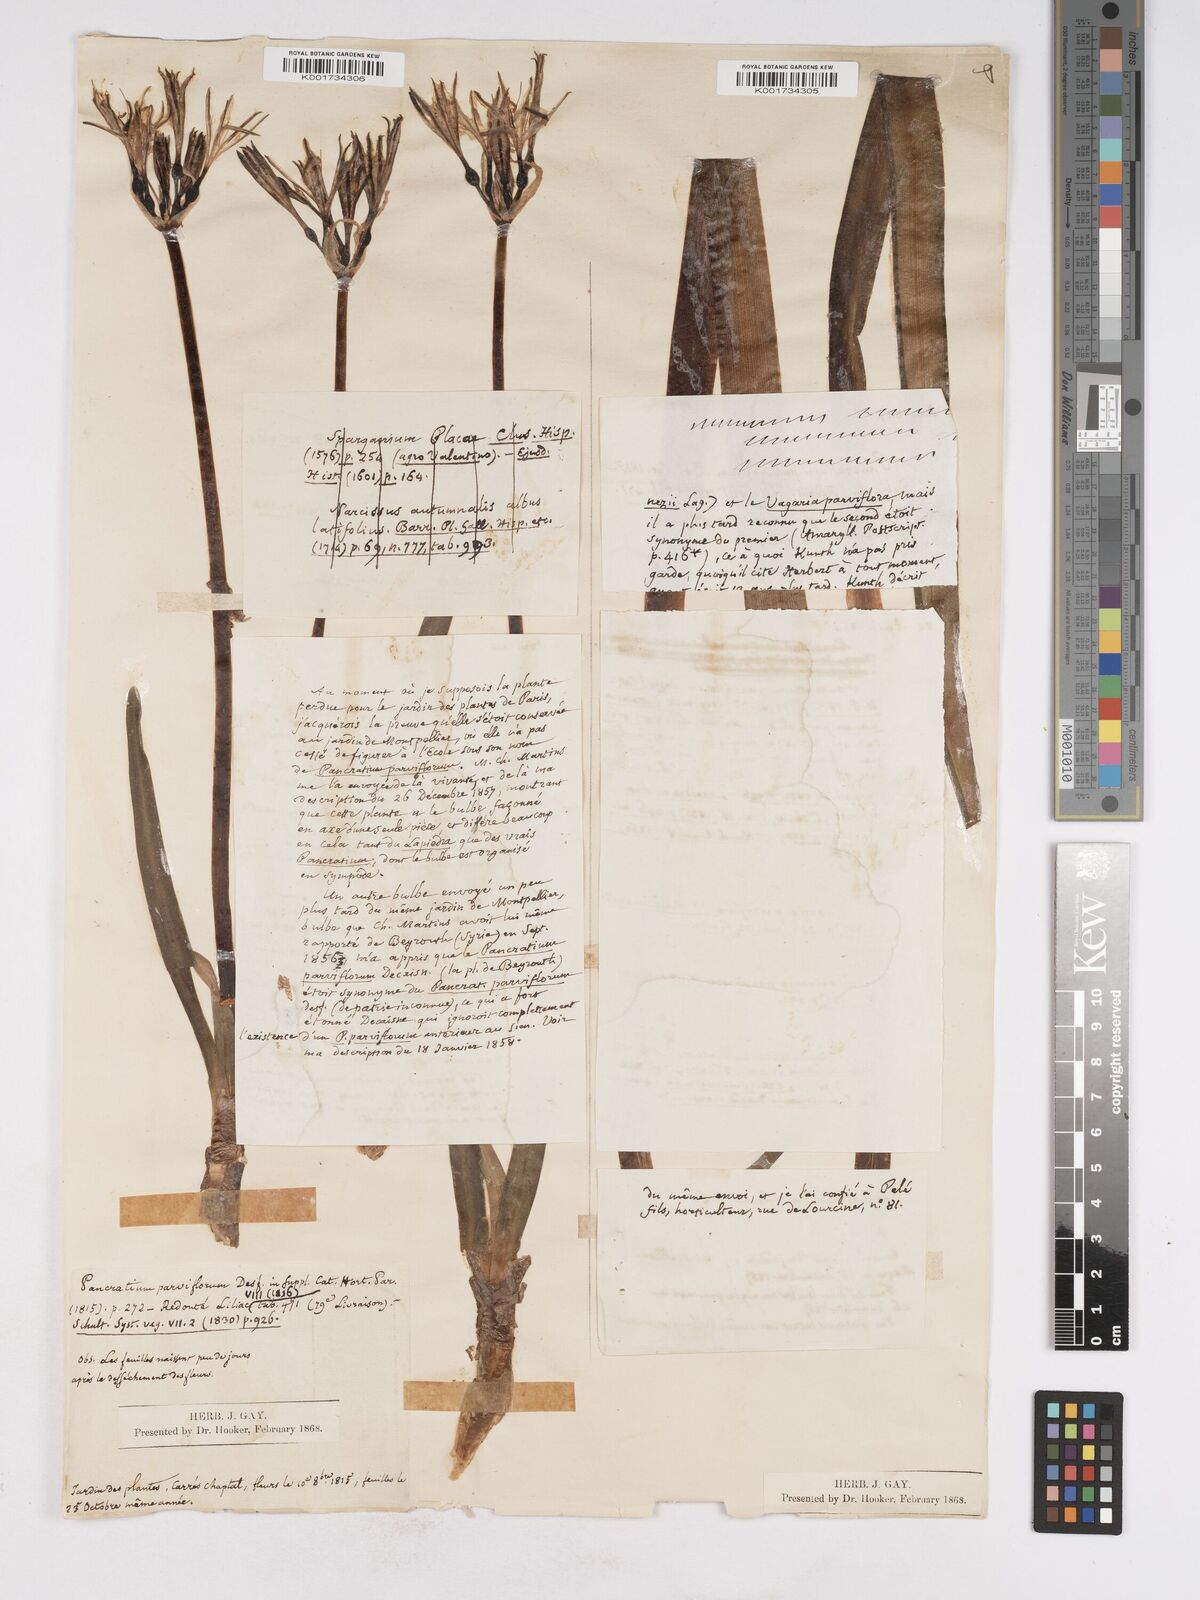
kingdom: Plantae
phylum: Tracheophyta
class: Liliopsida
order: Asparagales
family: Amaryllidaceae
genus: Vagaria
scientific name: Vagaria parviflora
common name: Small-flowered pancratium
